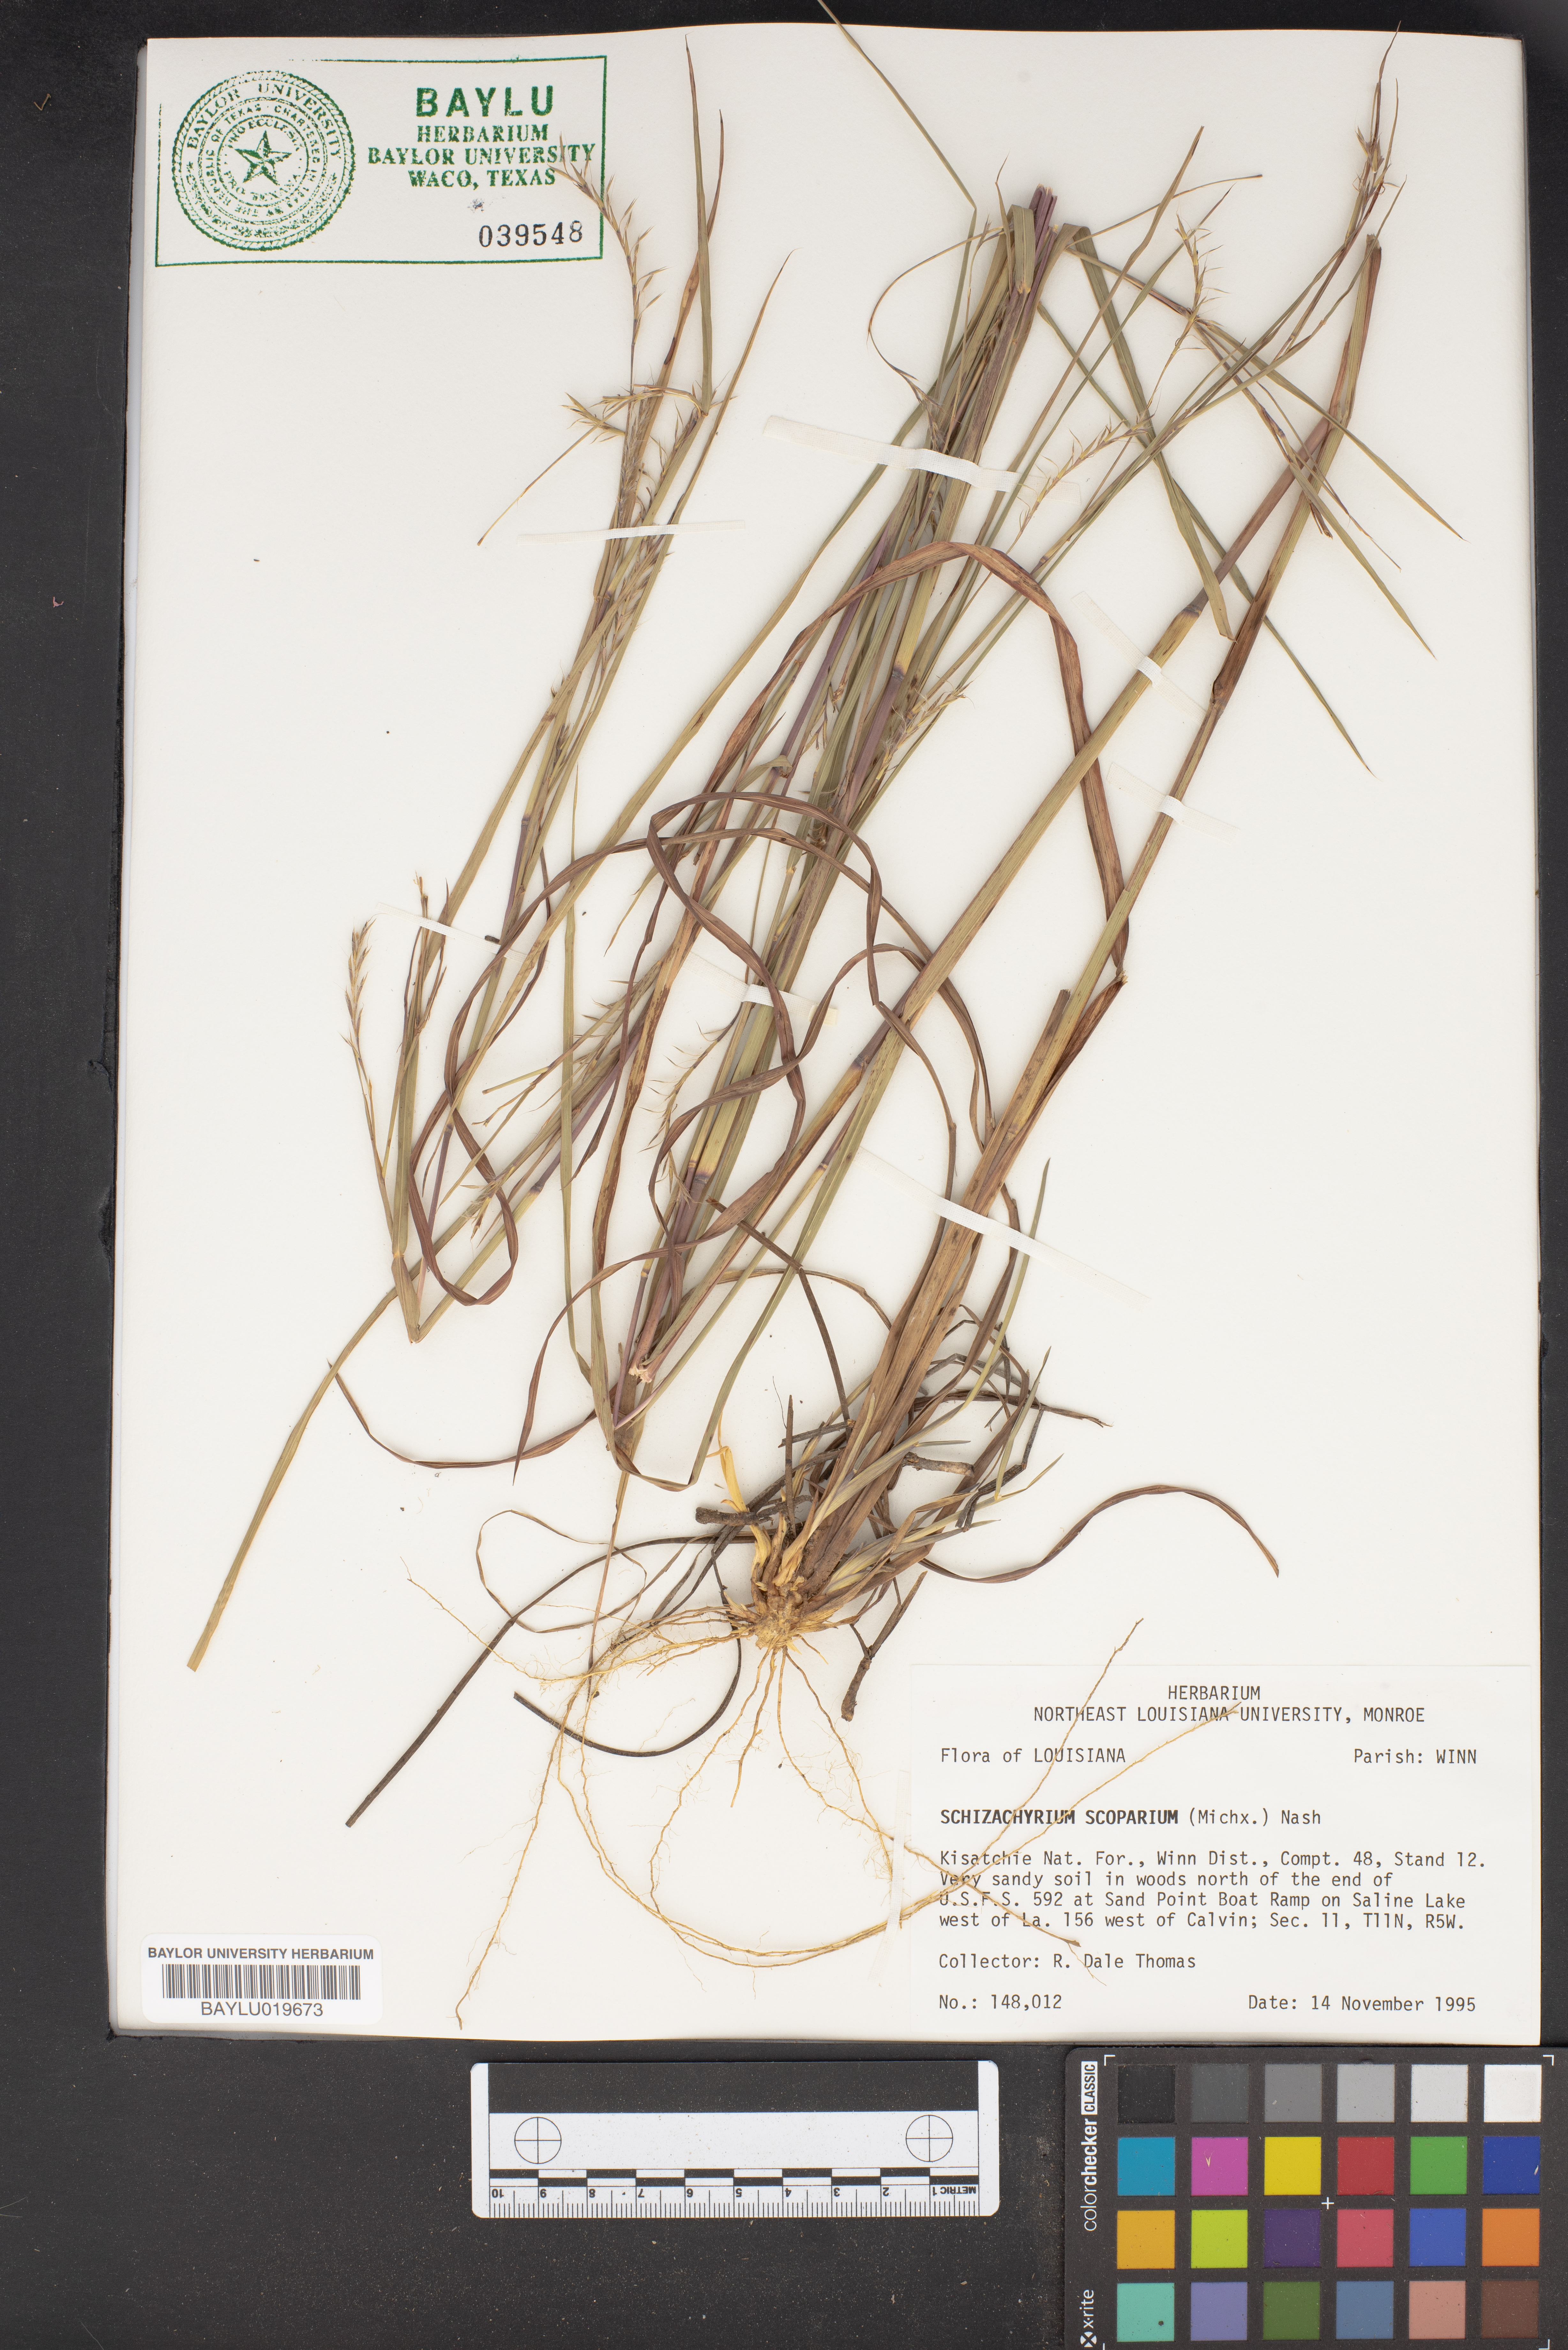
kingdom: Plantae
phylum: Tracheophyta
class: Liliopsida
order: Poales
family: Poaceae
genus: Schizachyrium
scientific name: Schizachyrium scoparium
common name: Little bluestem
